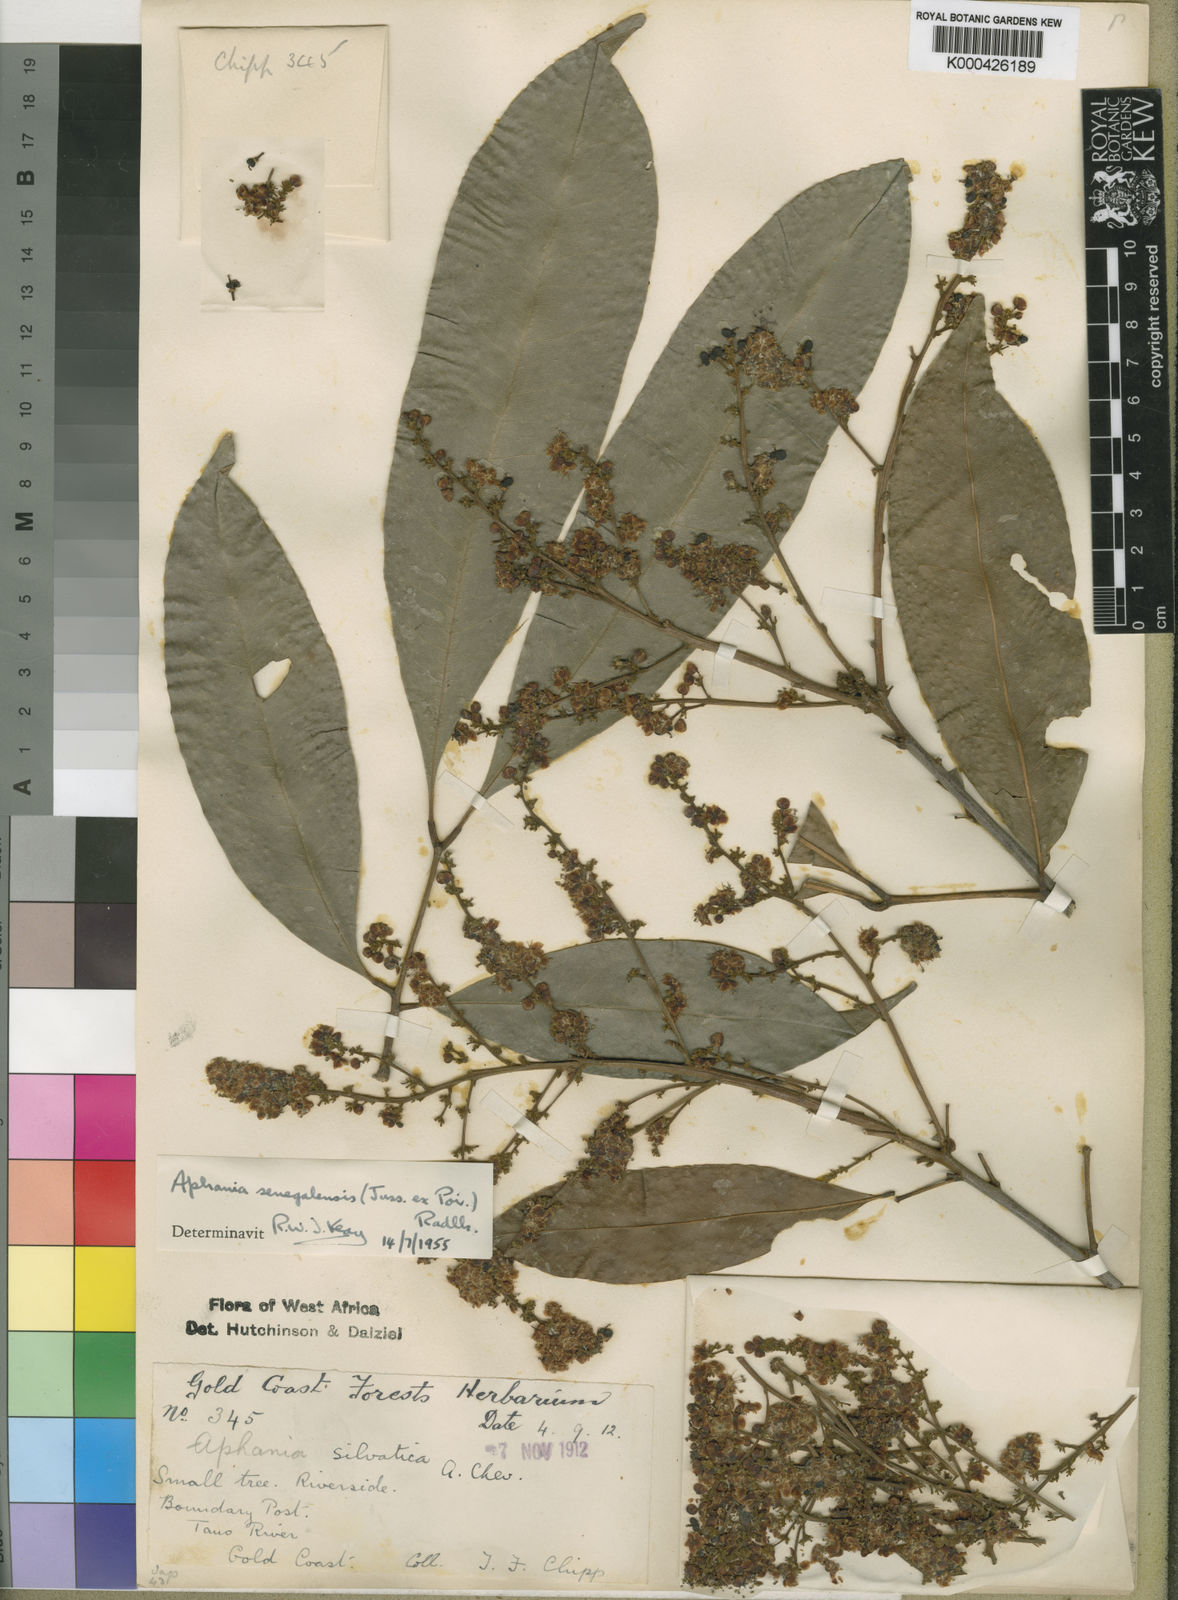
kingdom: Plantae
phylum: Tracheophyta
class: Magnoliopsida
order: Sapindales
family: Sapindaceae
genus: Lepisanthes
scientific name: Lepisanthes senegalensis
